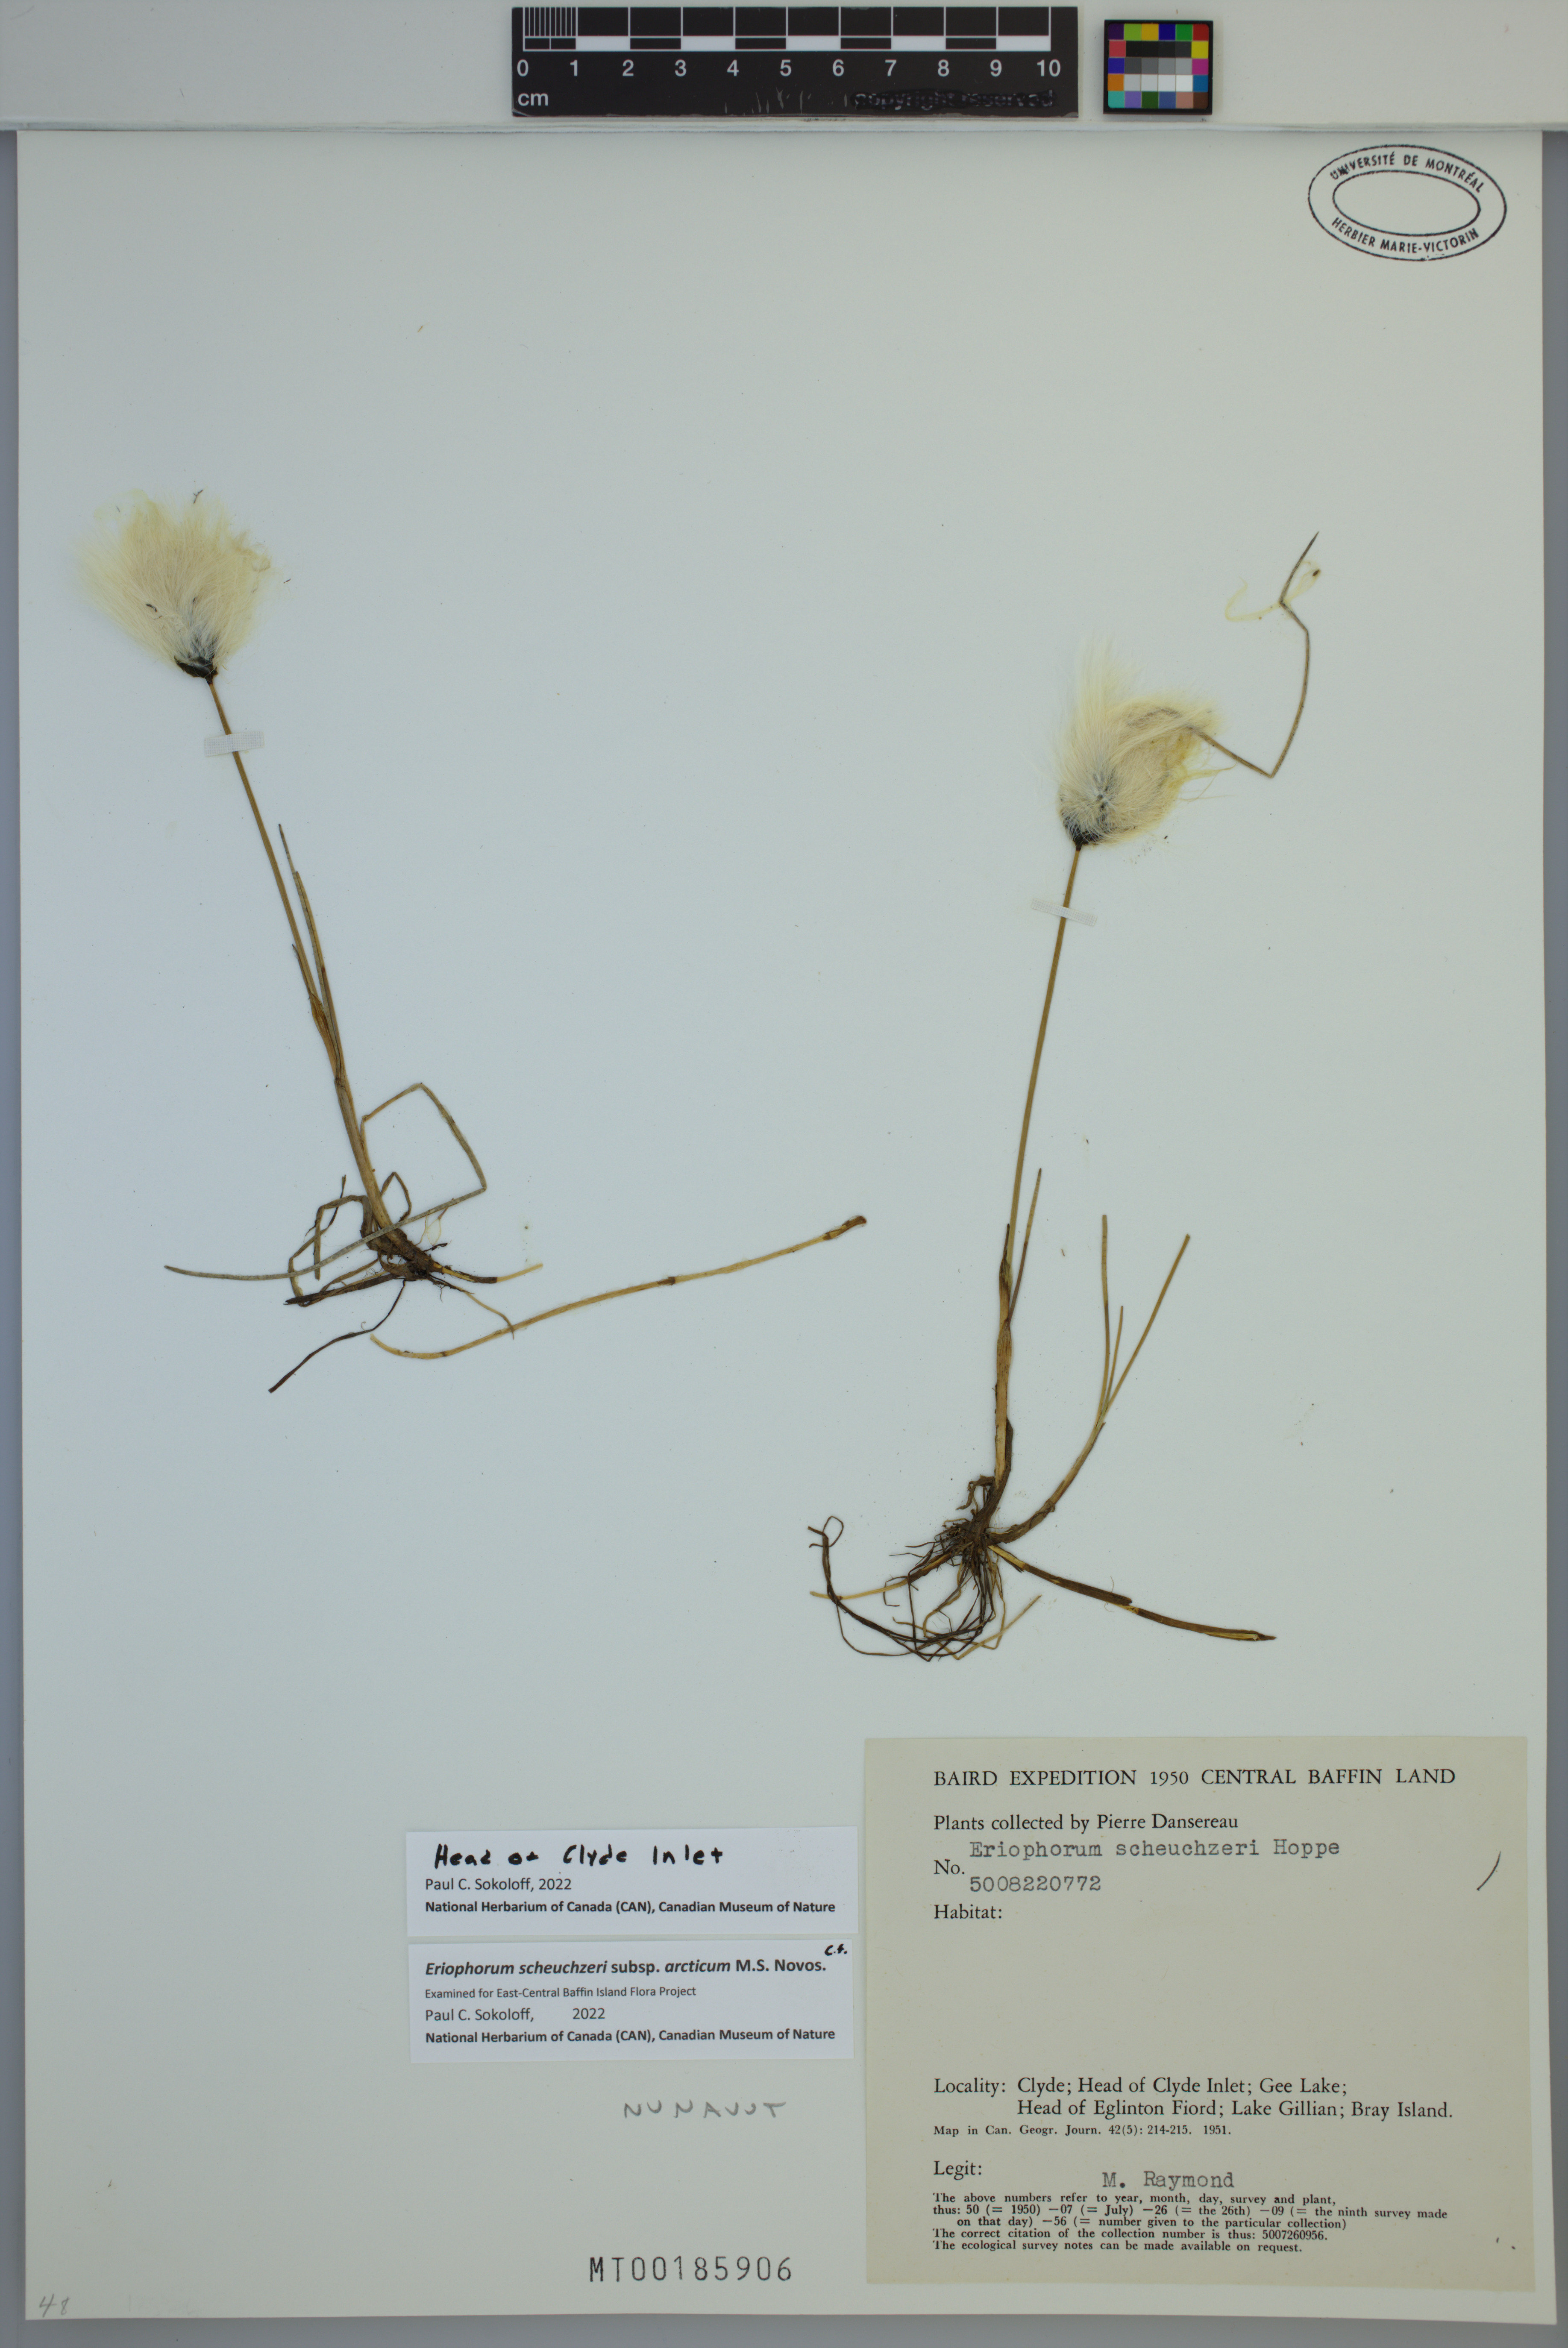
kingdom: Plantae
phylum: Tracheophyta
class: Liliopsida
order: Poales
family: Cyperaceae
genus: Eriophorum
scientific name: Eriophorum scheuchzeri
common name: Scheuchzer's cottongrass
